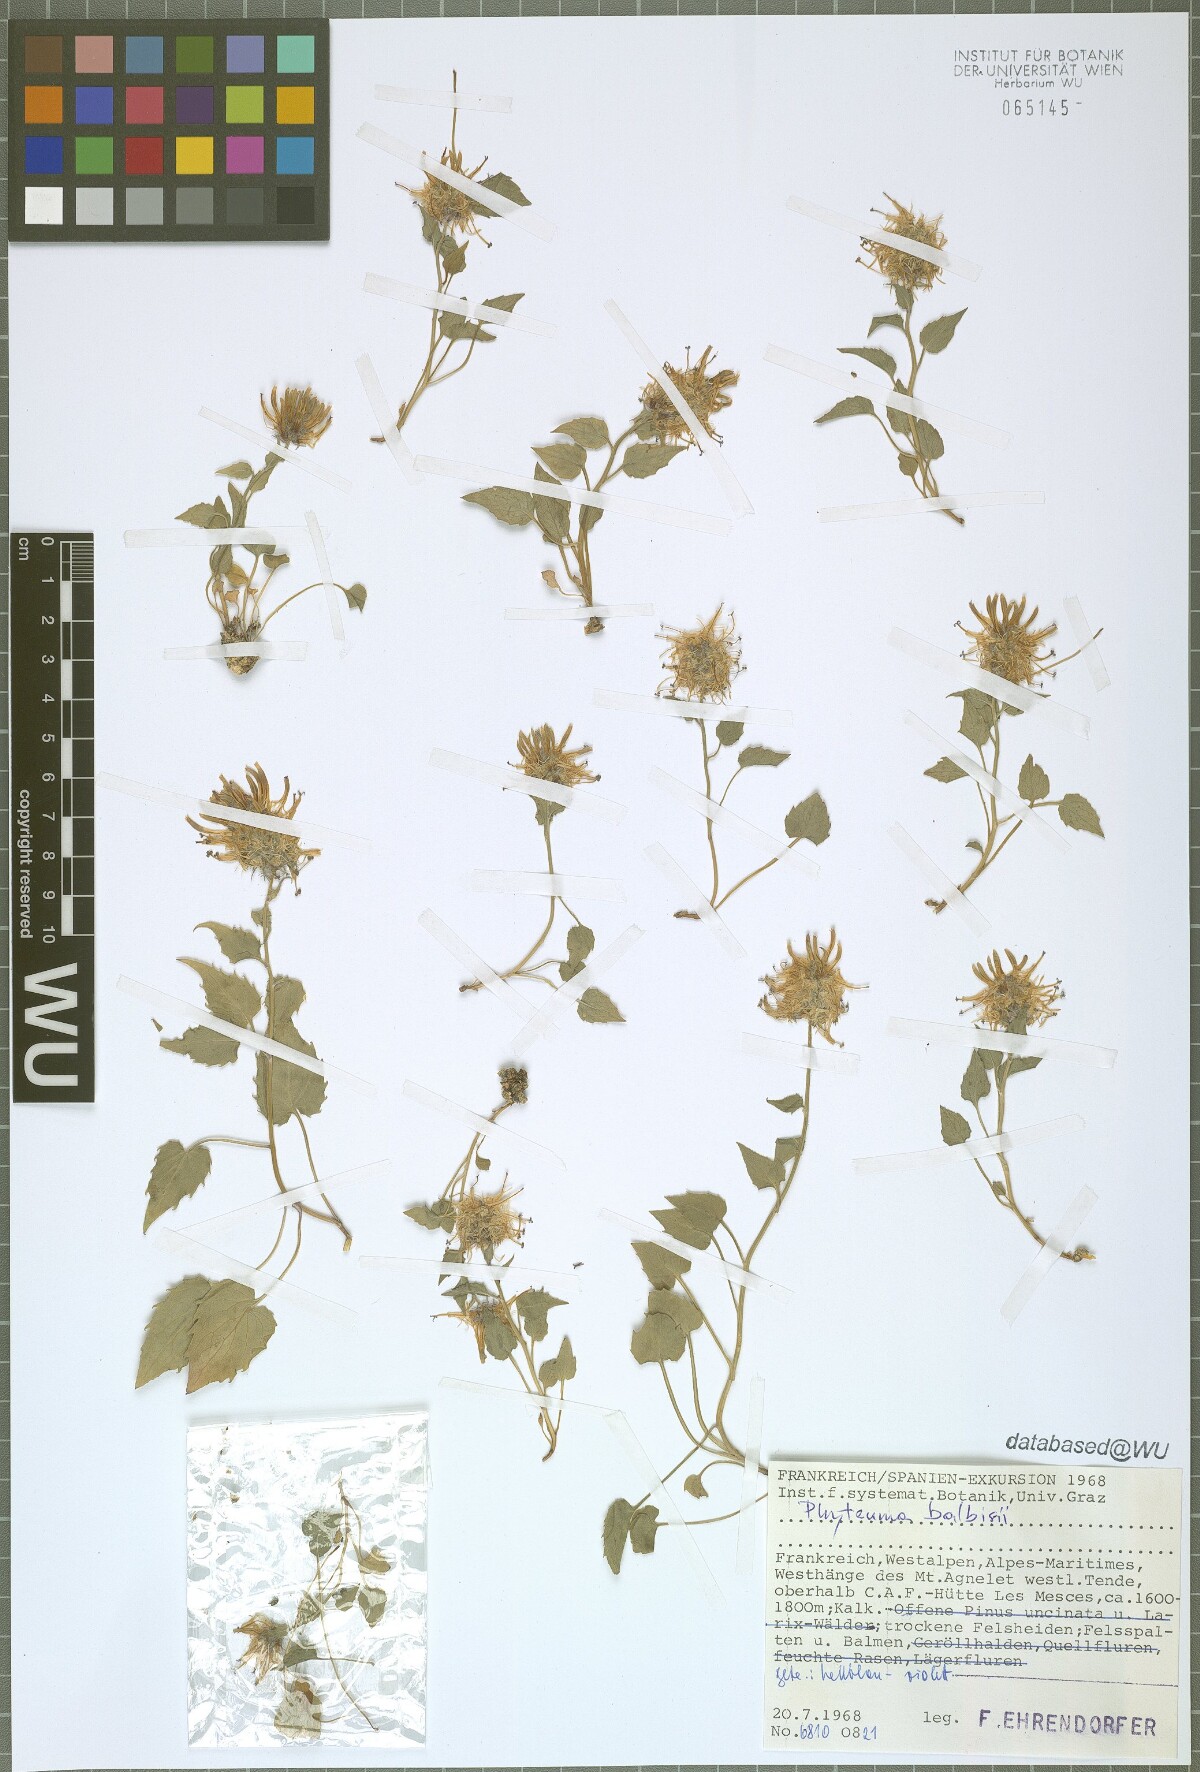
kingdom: Plantae
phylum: Tracheophyta
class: Magnoliopsida
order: Asterales
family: Campanulaceae
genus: Phyteuma
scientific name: Phyteuma cordatum
